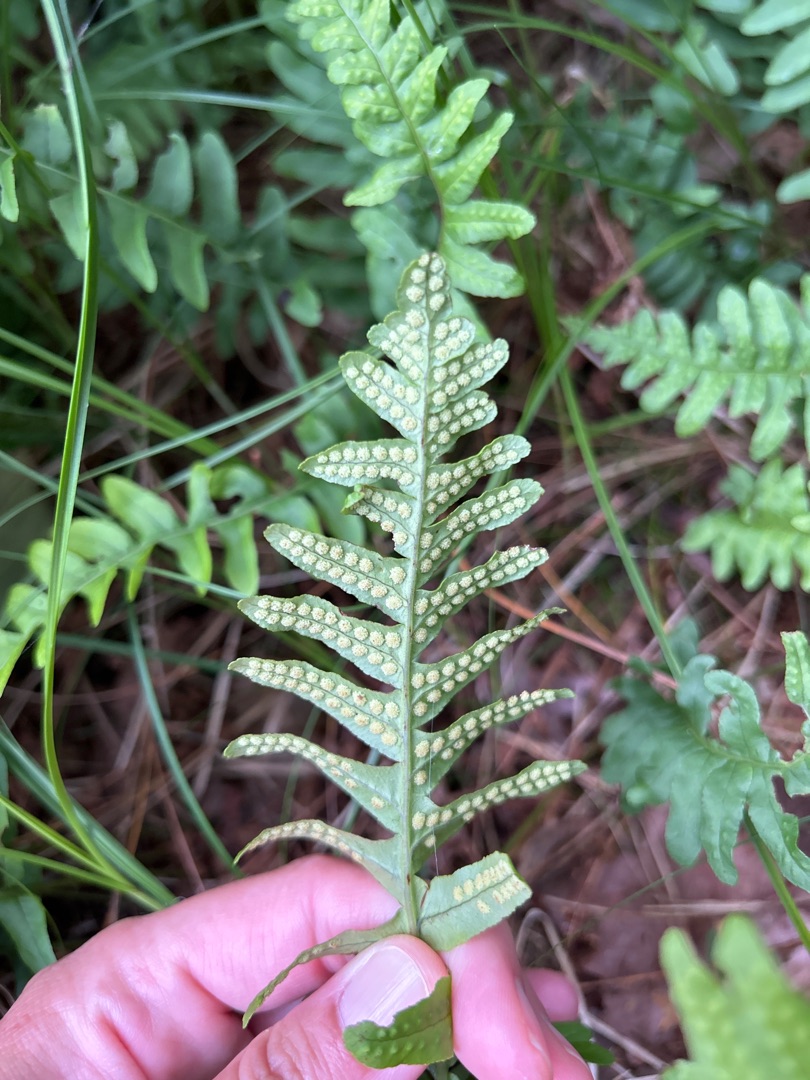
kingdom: Plantae
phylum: Tracheophyta
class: Polypodiopsida
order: Polypodiales
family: Polypodiaceae
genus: Polypodium
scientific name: Polypodium
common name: Engelsødslægten
